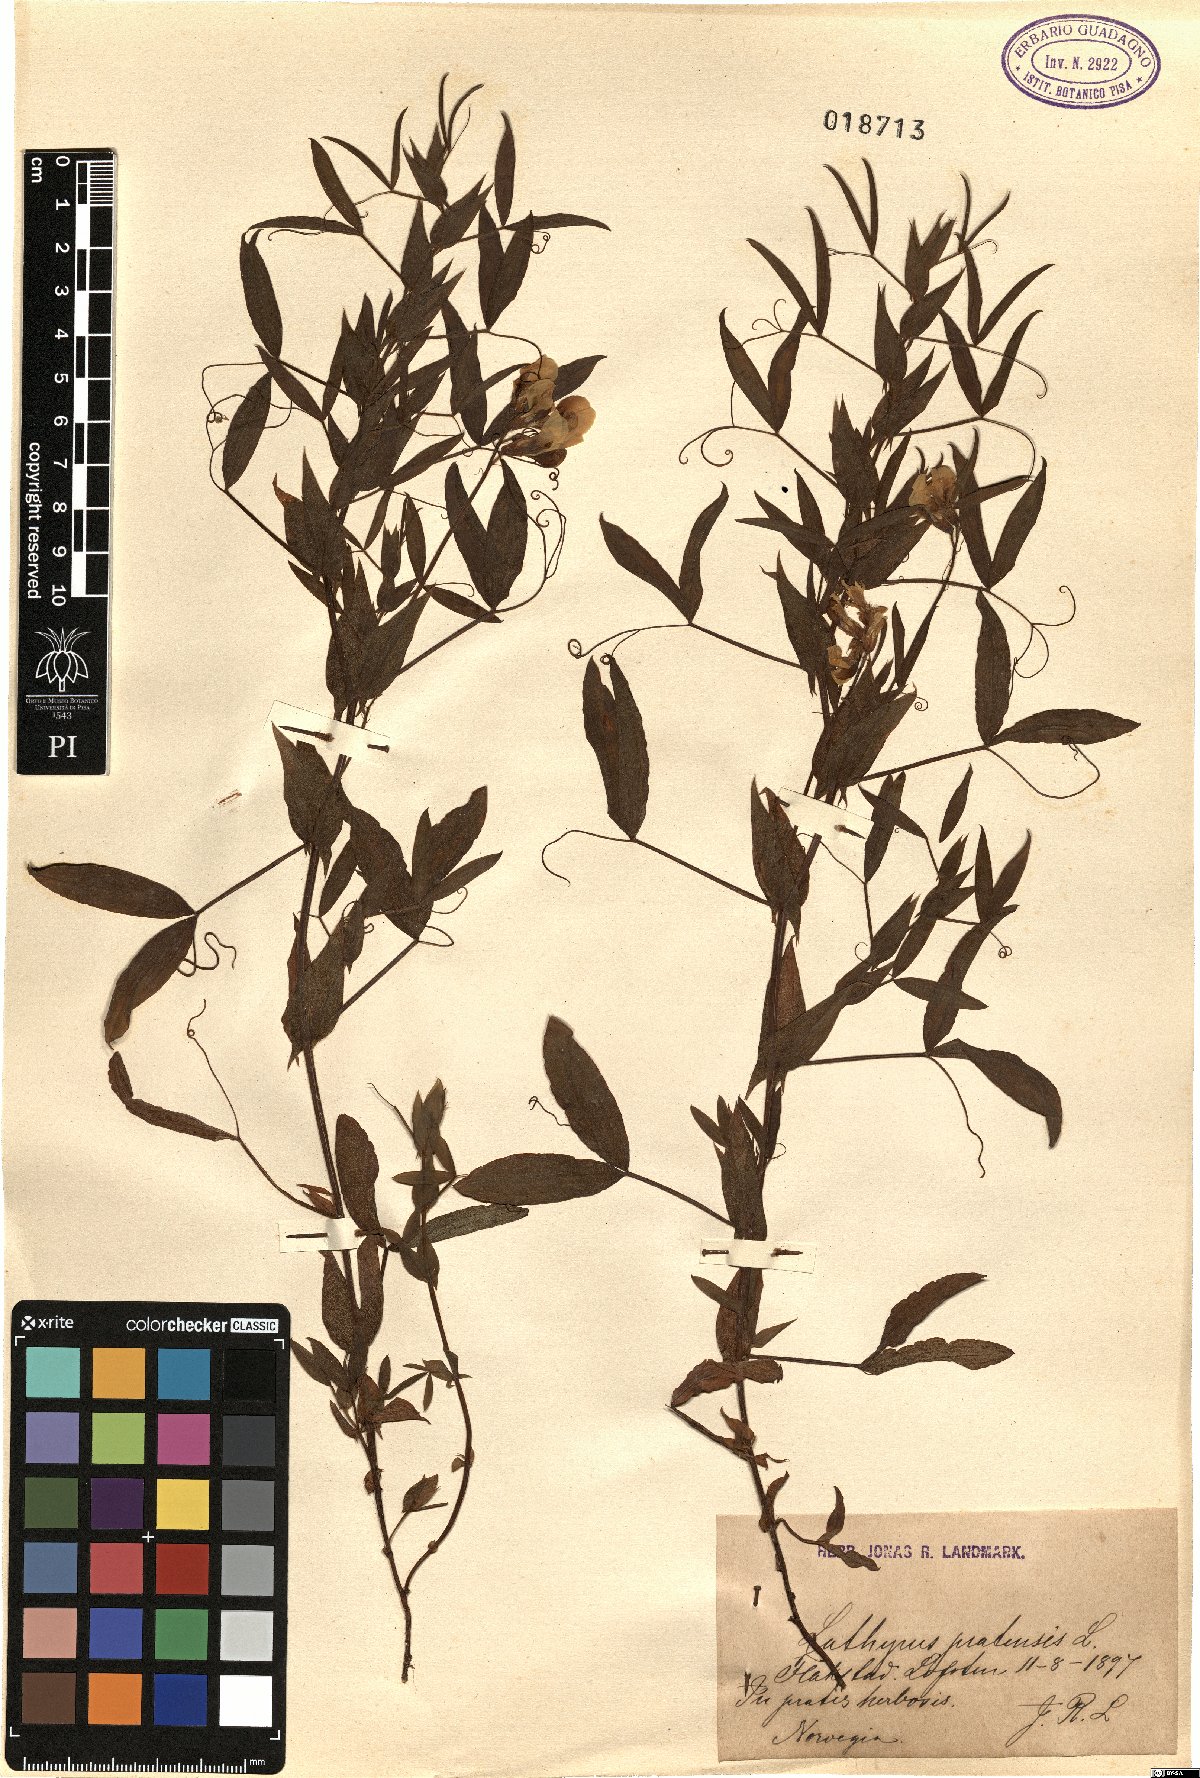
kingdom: Plantae
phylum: Tracheophyta
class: Magnoliopsida
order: Fabales
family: Fabaceae
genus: Lathyrus
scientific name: Lathyrus pratensis
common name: Meadow vetchling
